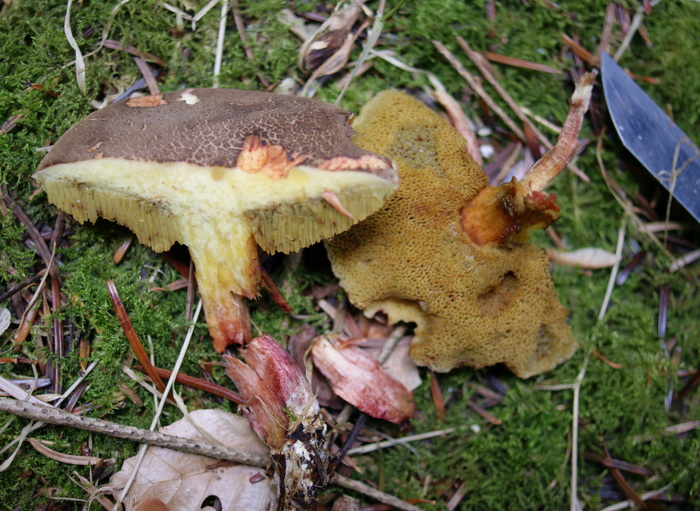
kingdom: Fungi
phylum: Basidiomycota
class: Agaricomycetes
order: Boletales
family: Boletaceae
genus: Xerocomellus
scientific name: Xerocomellus chrysenteron
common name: rødsprukken rørhat
